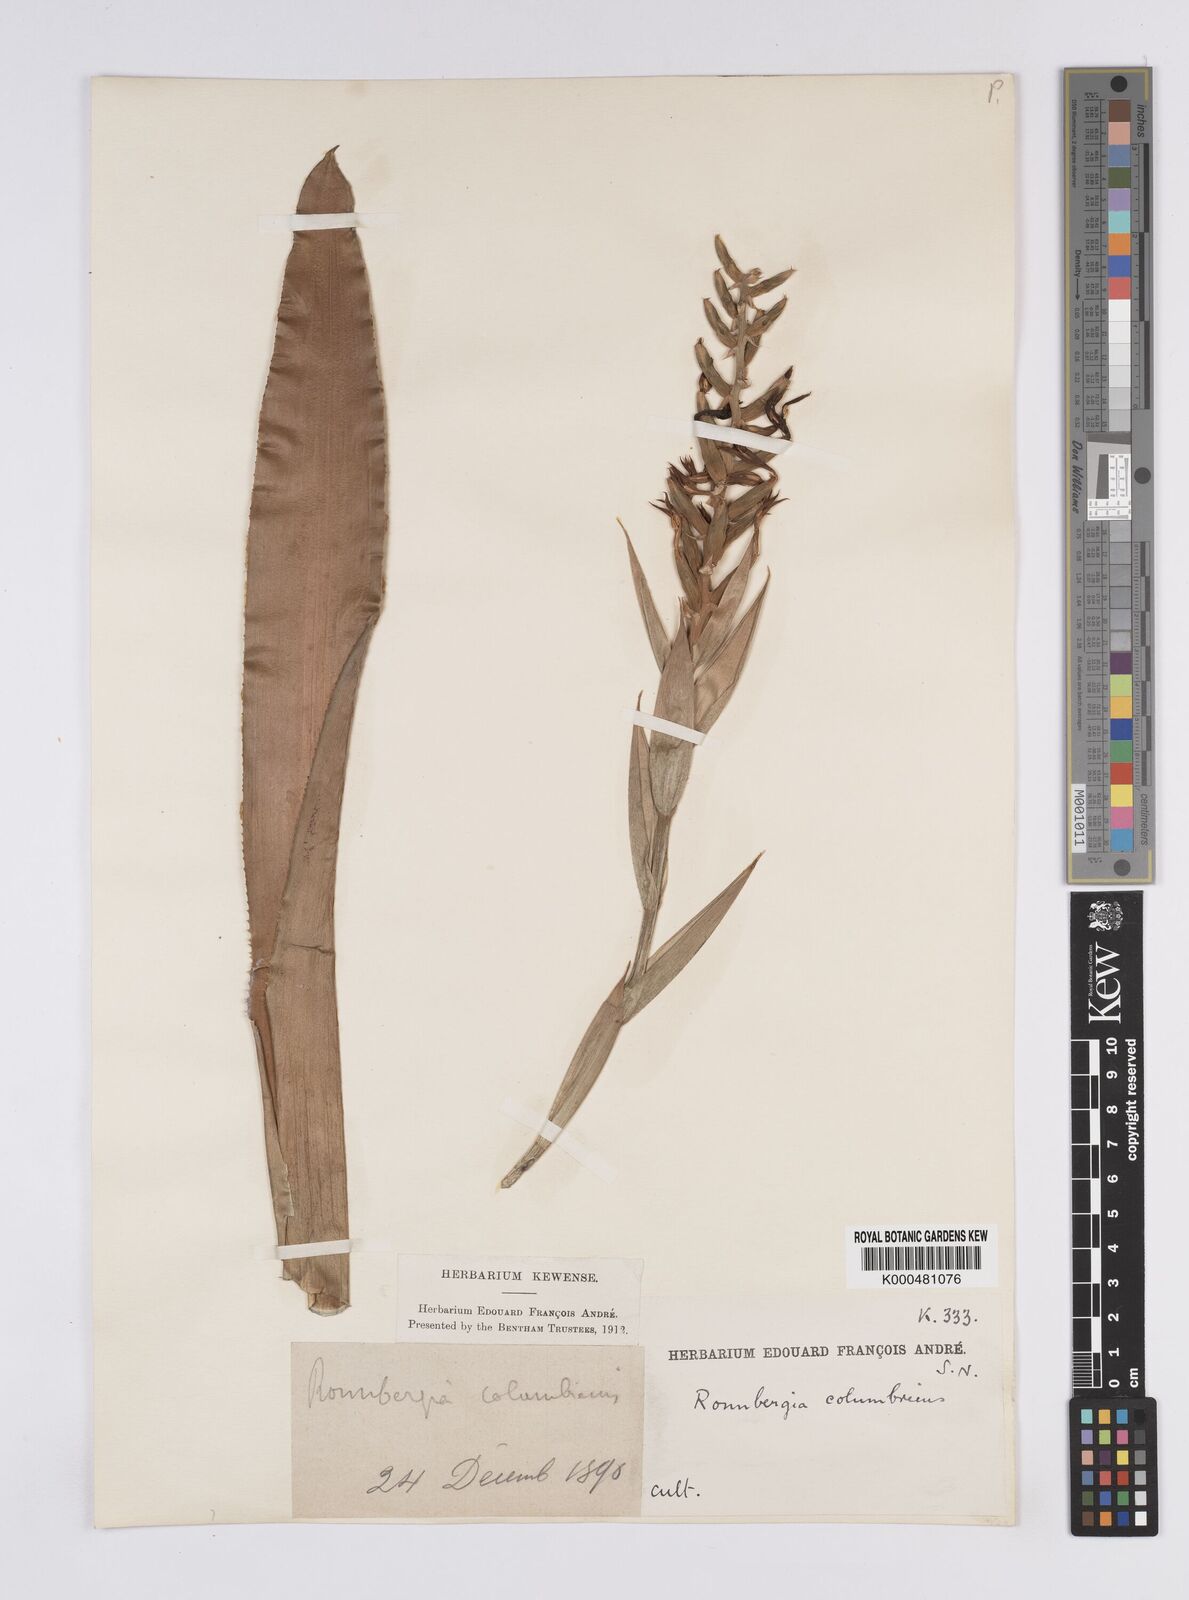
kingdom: Plantae
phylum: Tracheophyta
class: Liliopsida
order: Poales
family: Bromeliaceae
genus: Ronnbergia
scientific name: Ronnbergia columbiana
